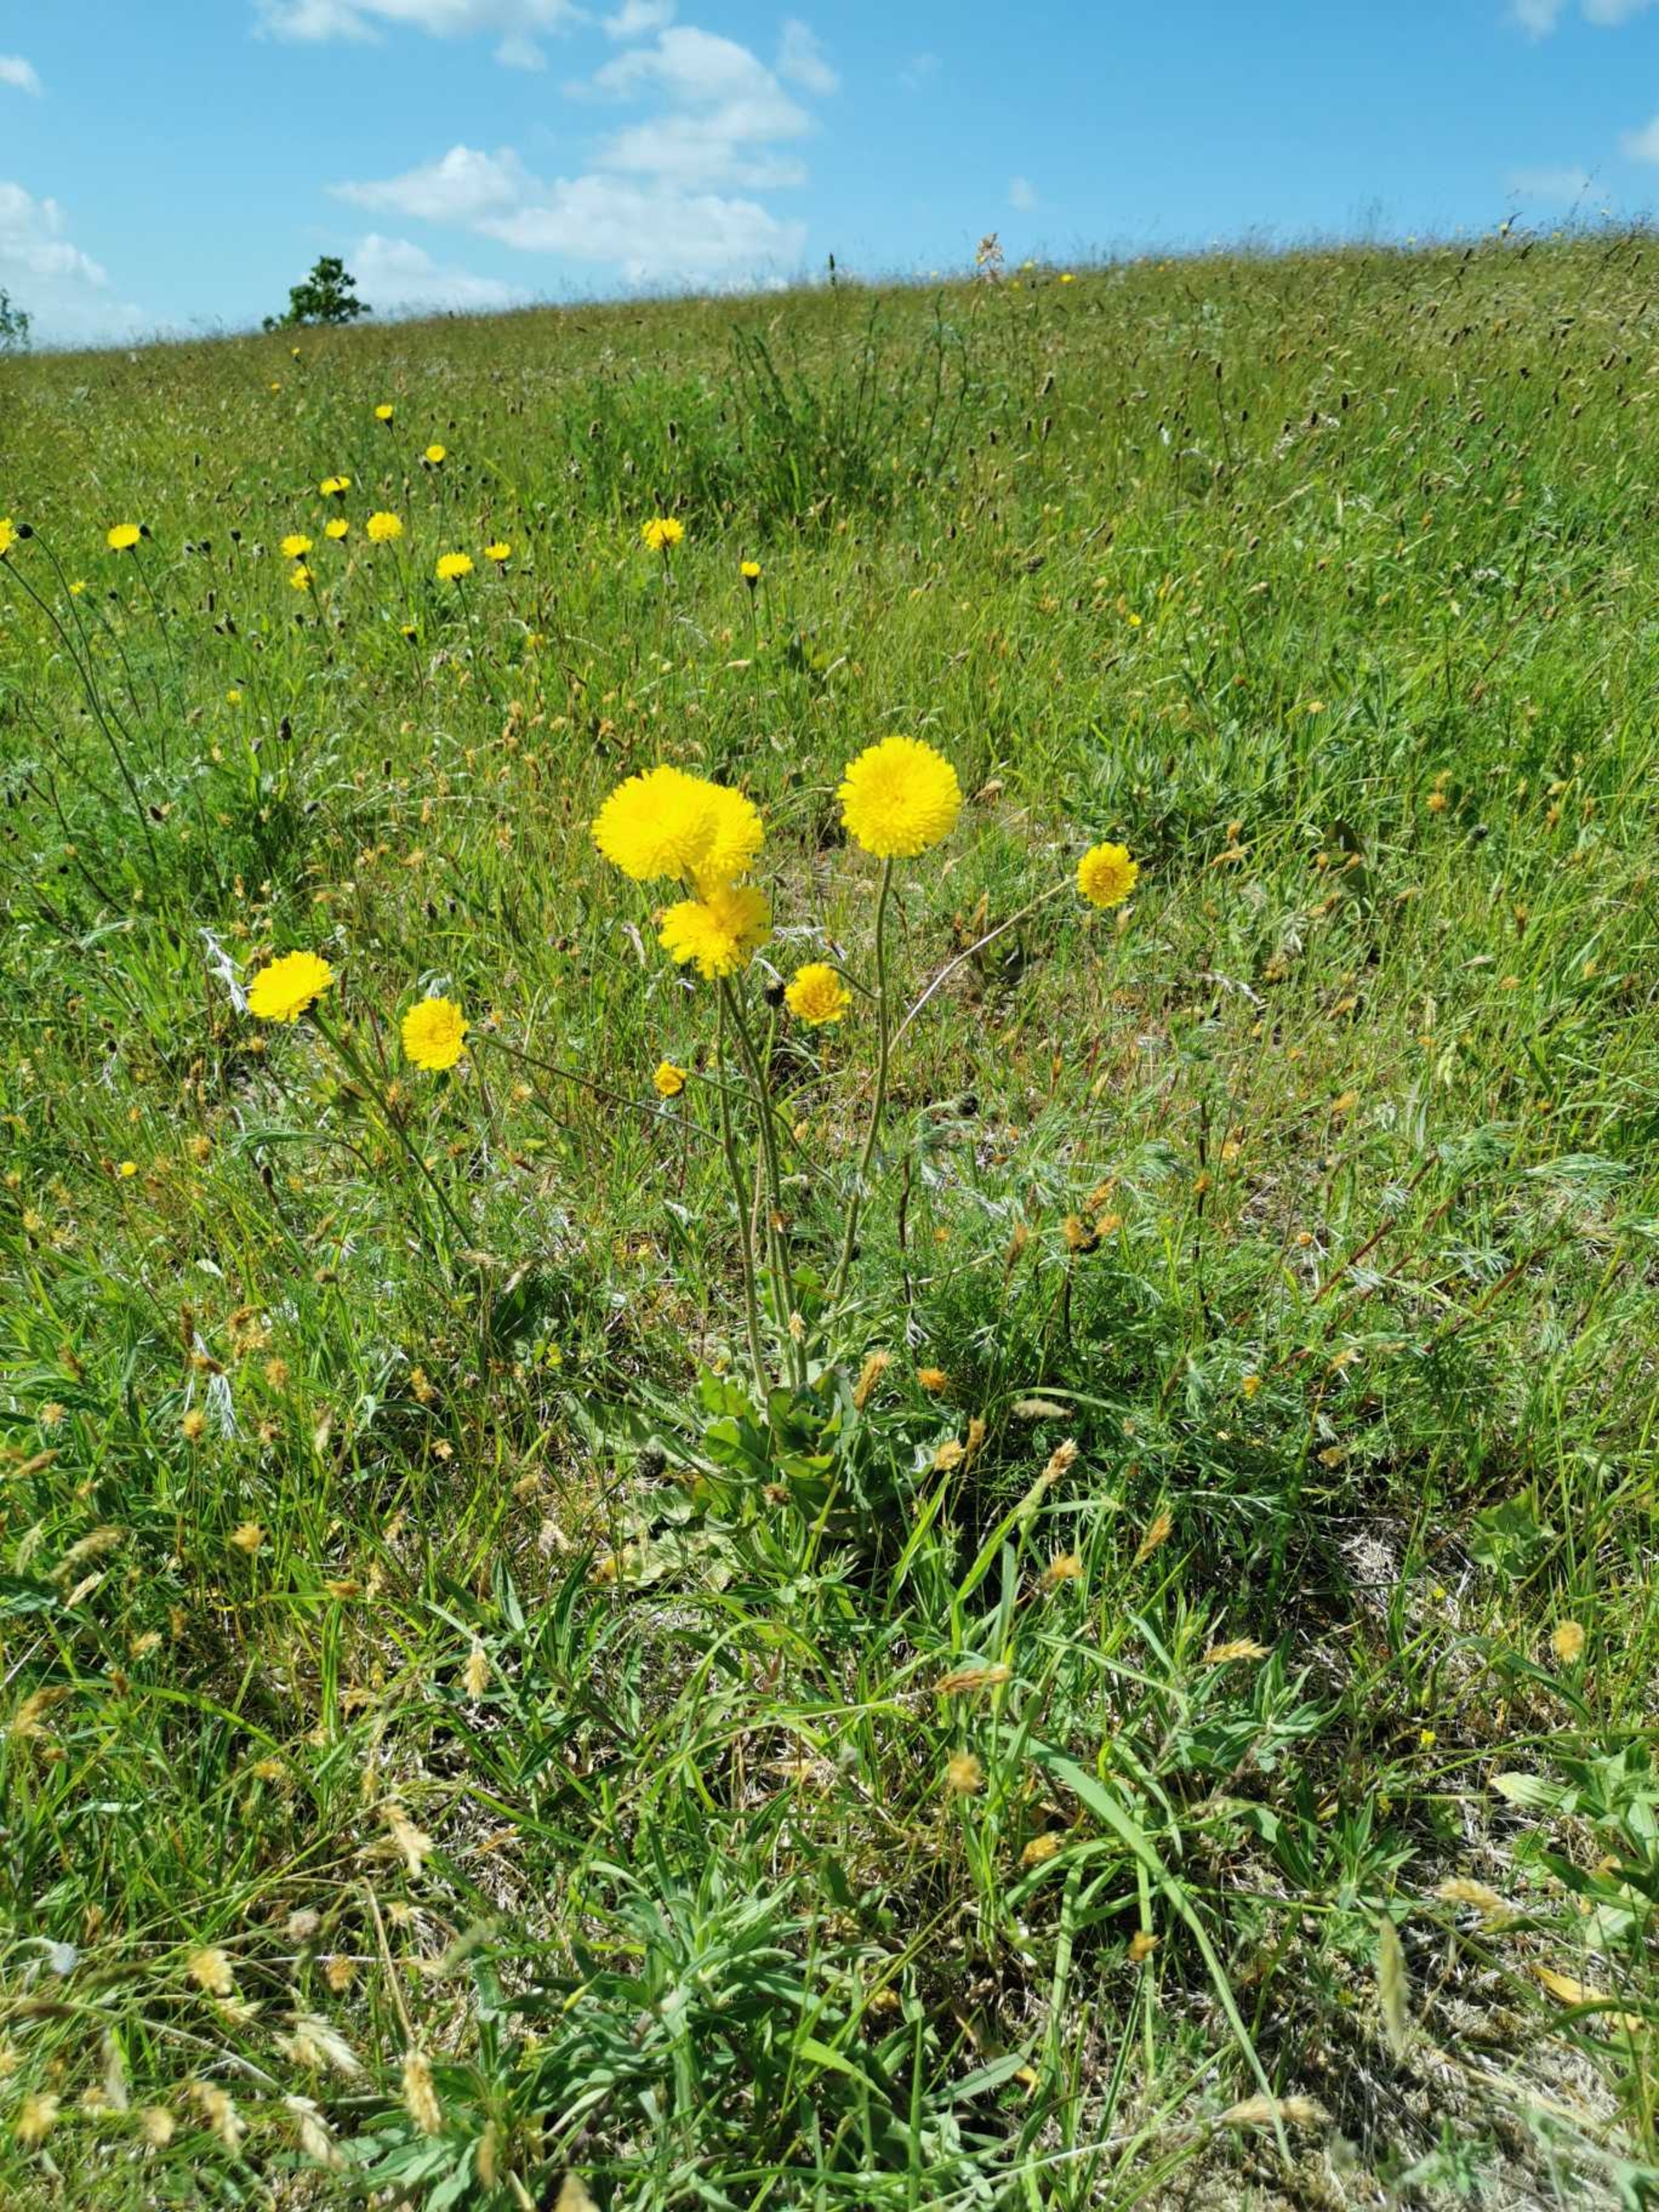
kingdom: Plantae
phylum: Tracheophyta
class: Magnoliopsida
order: Asterales
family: Asteraceae
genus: Trommsdorffia
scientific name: Trommsdorffia maculata
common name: Plettet kongepen
